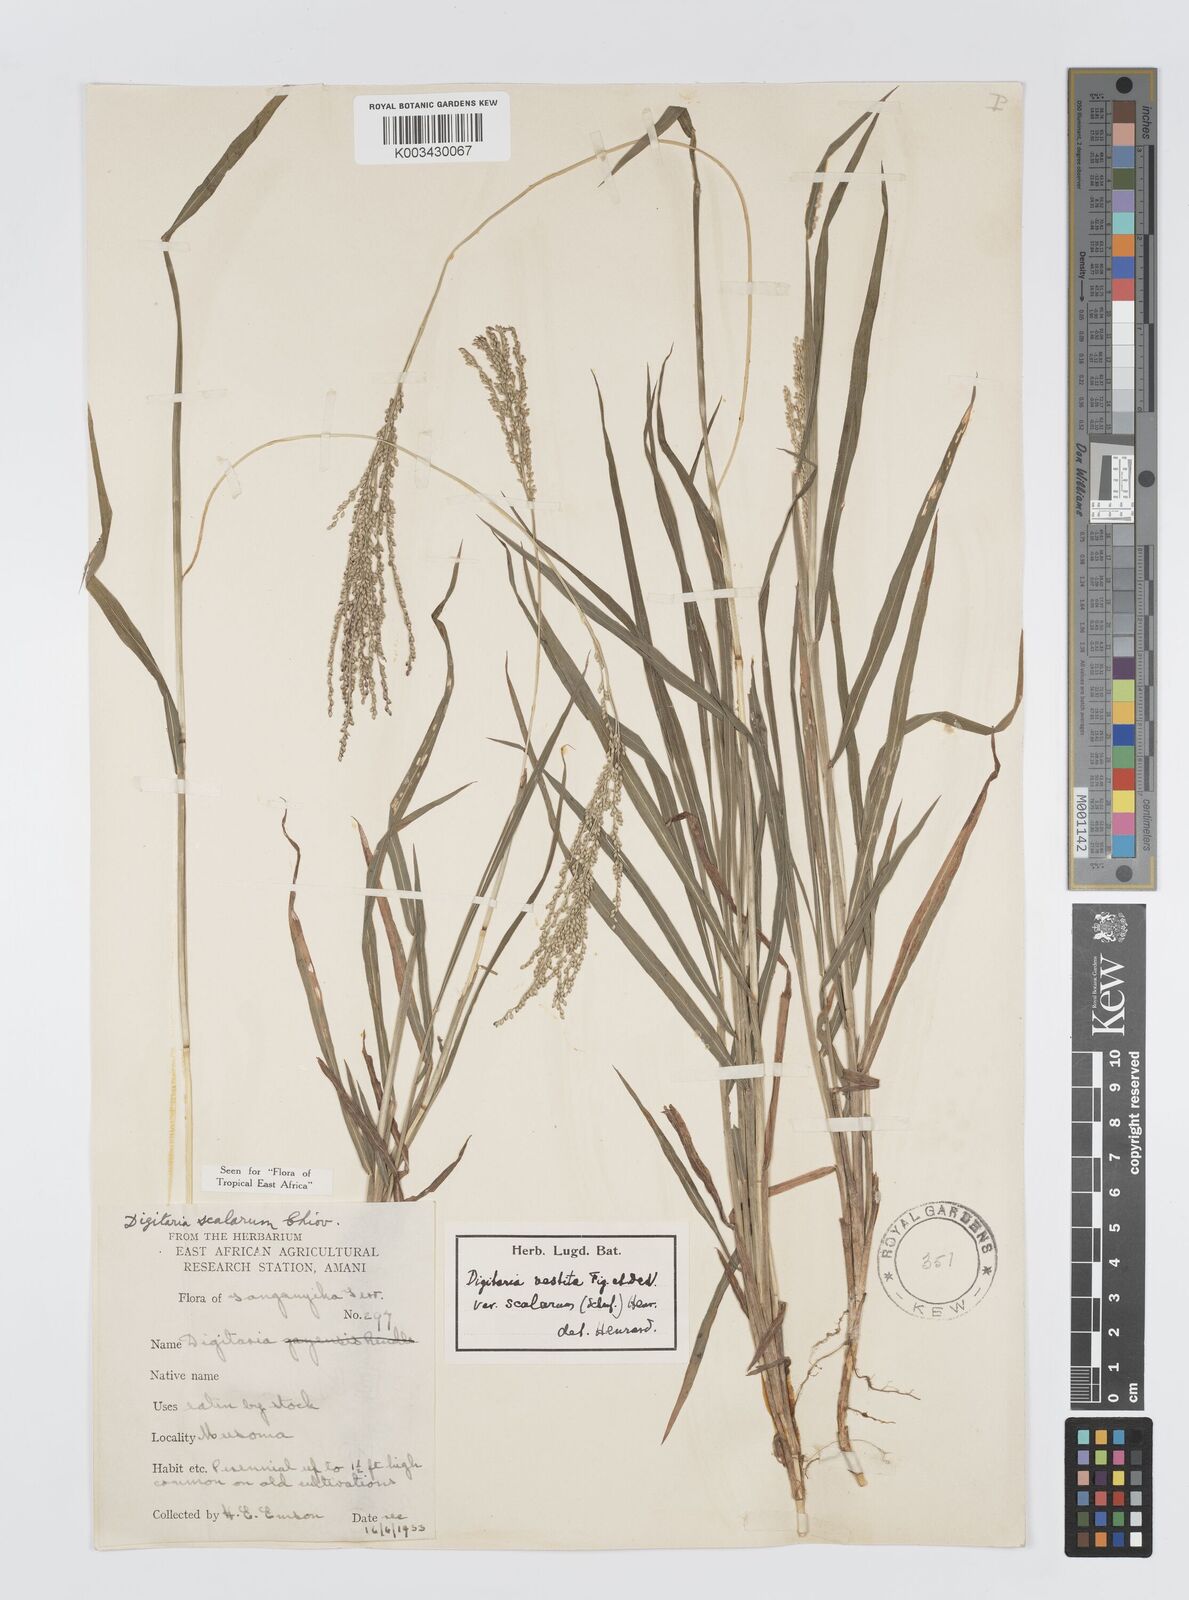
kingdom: Plantae
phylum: Tracheophyta
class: Liliopsida
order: Poales
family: Poaceae
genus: Digitaria
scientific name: Digitaria abyssinica
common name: African couchgrass
